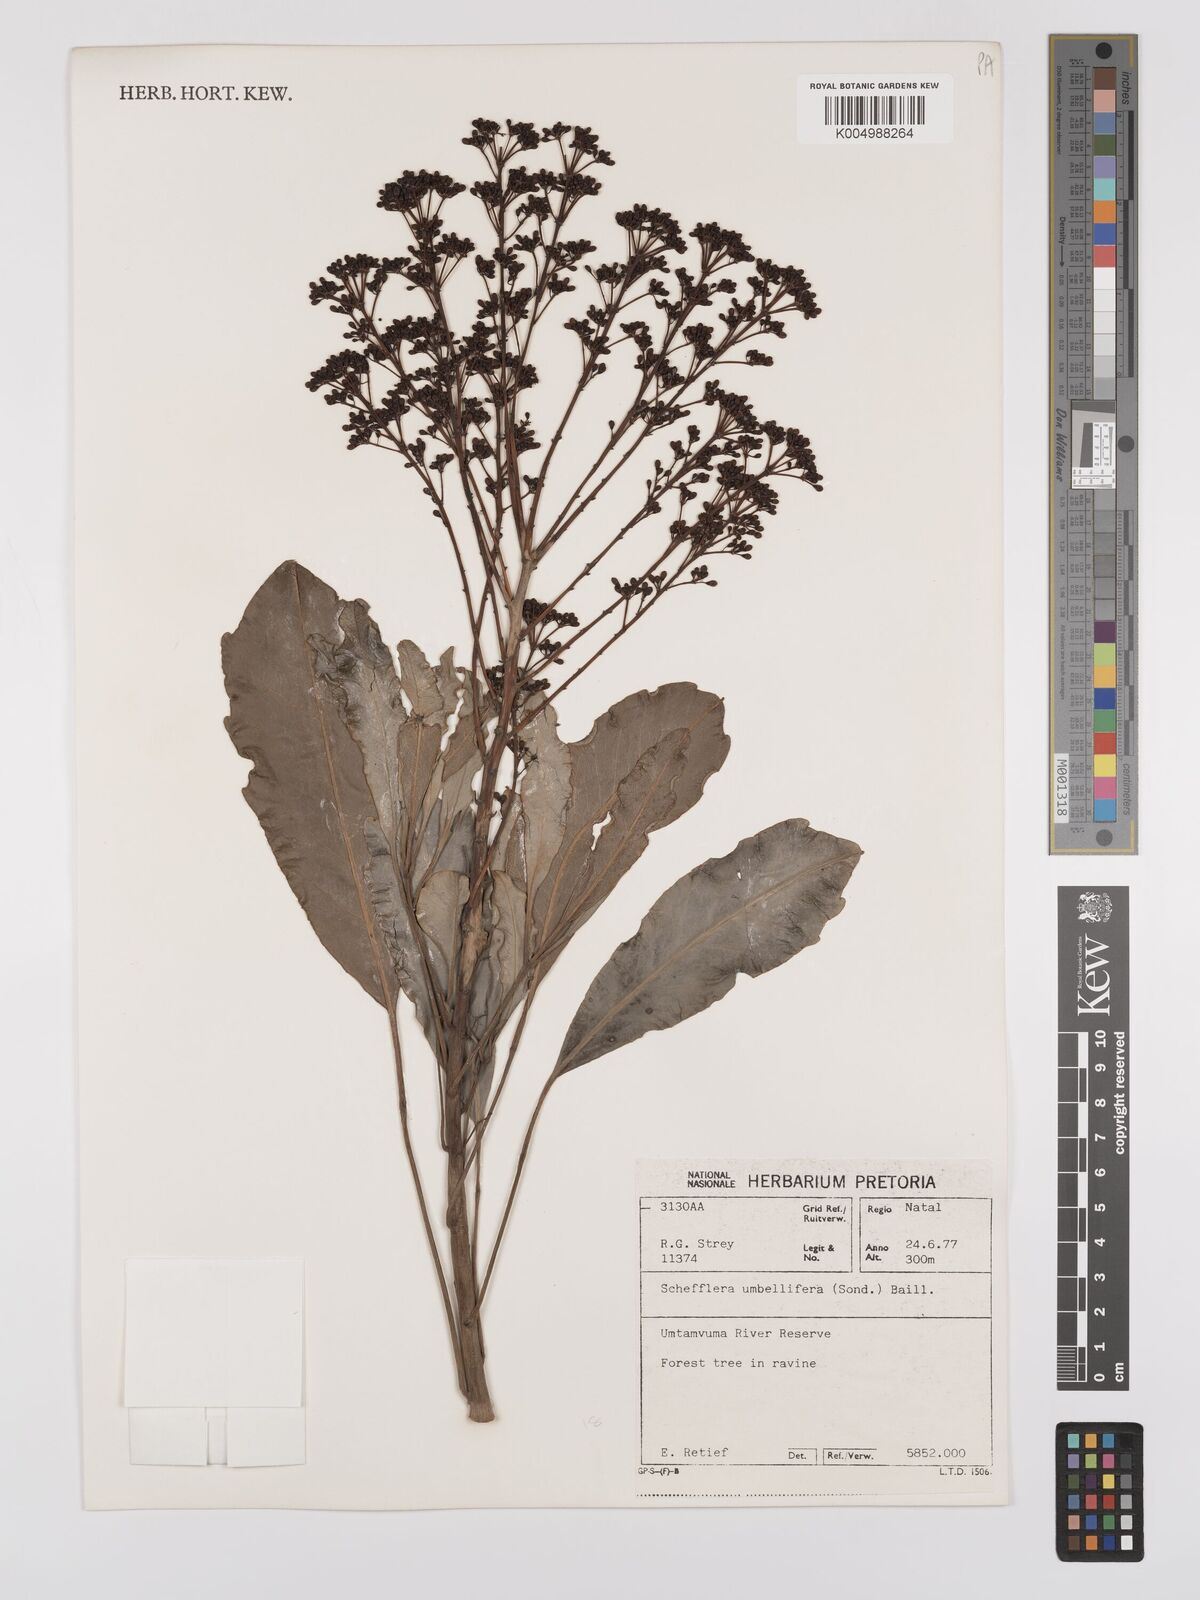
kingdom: Plantae
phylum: Tracheophyta
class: Magnoliopsida
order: Apiales
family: Araliaceae
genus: Neocussonia
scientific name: Neocussonia umbellifera
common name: False cabbage tree
